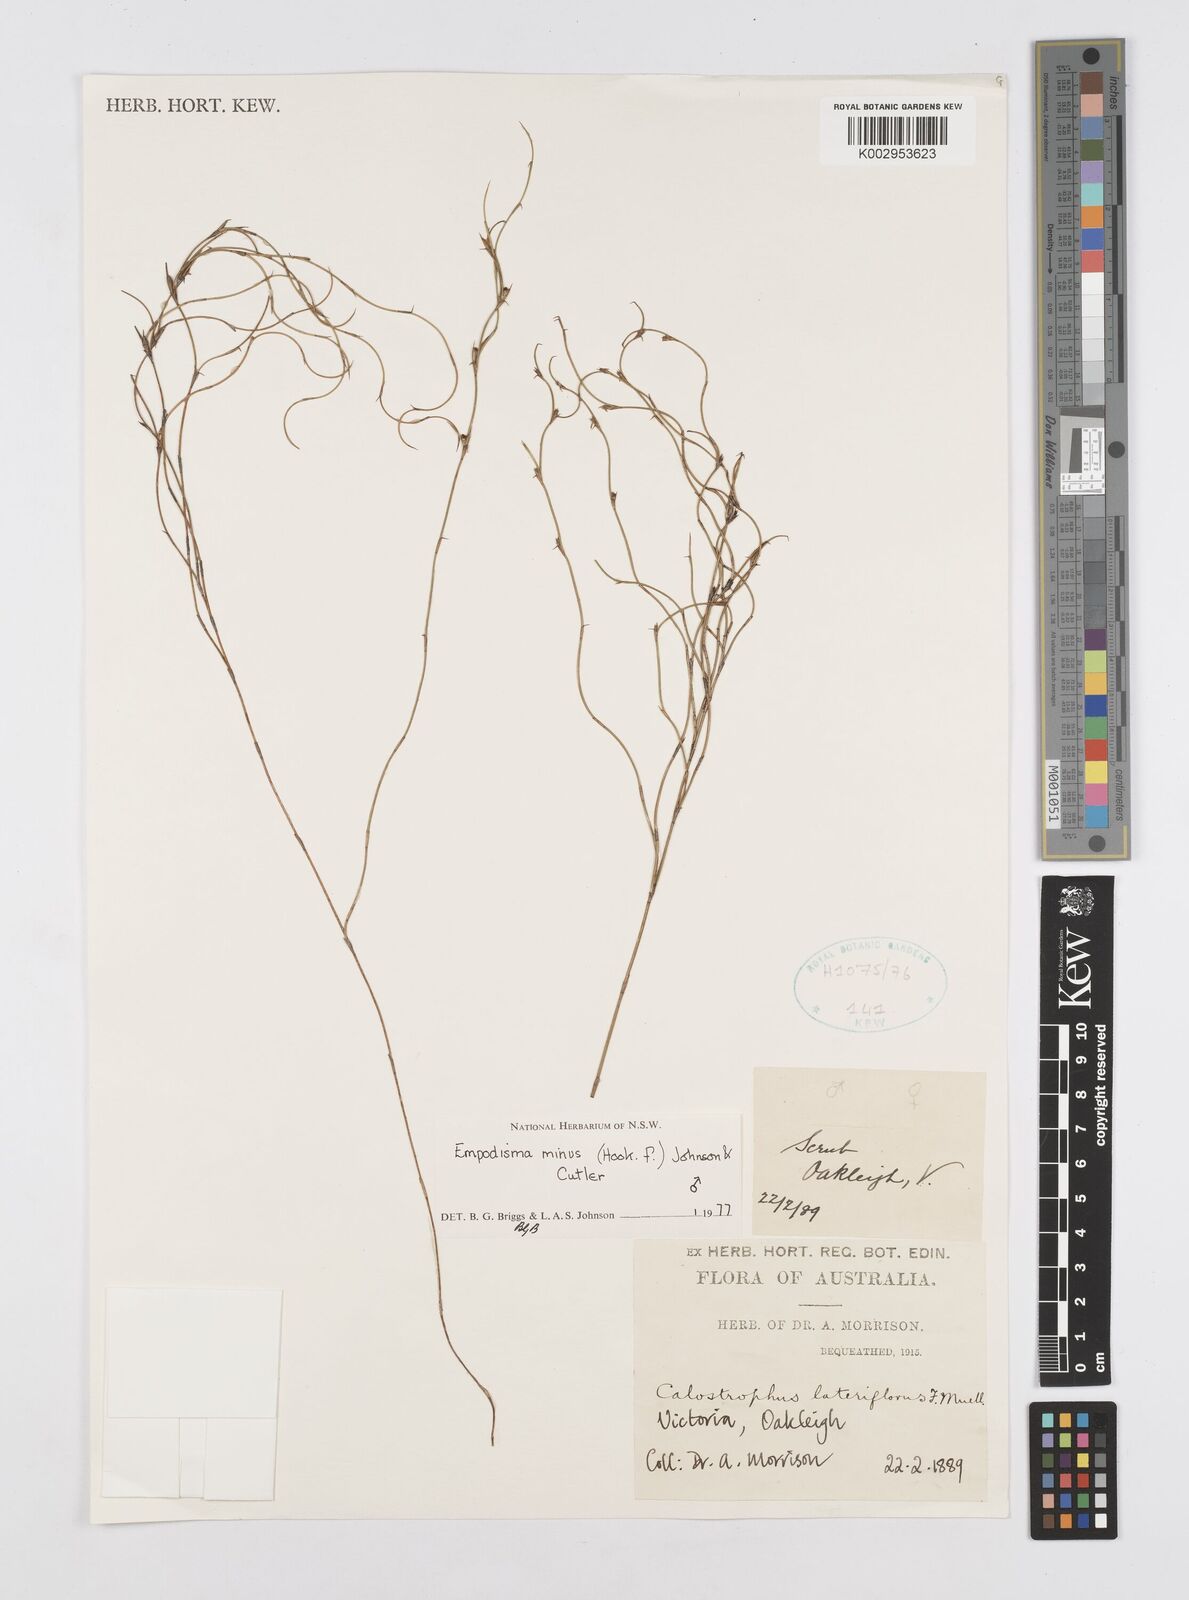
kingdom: Plantae
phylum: Tracheophyta
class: Liliopsida
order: Poales
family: Restionaceae
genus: Empodisma
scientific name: Empodisma minus
